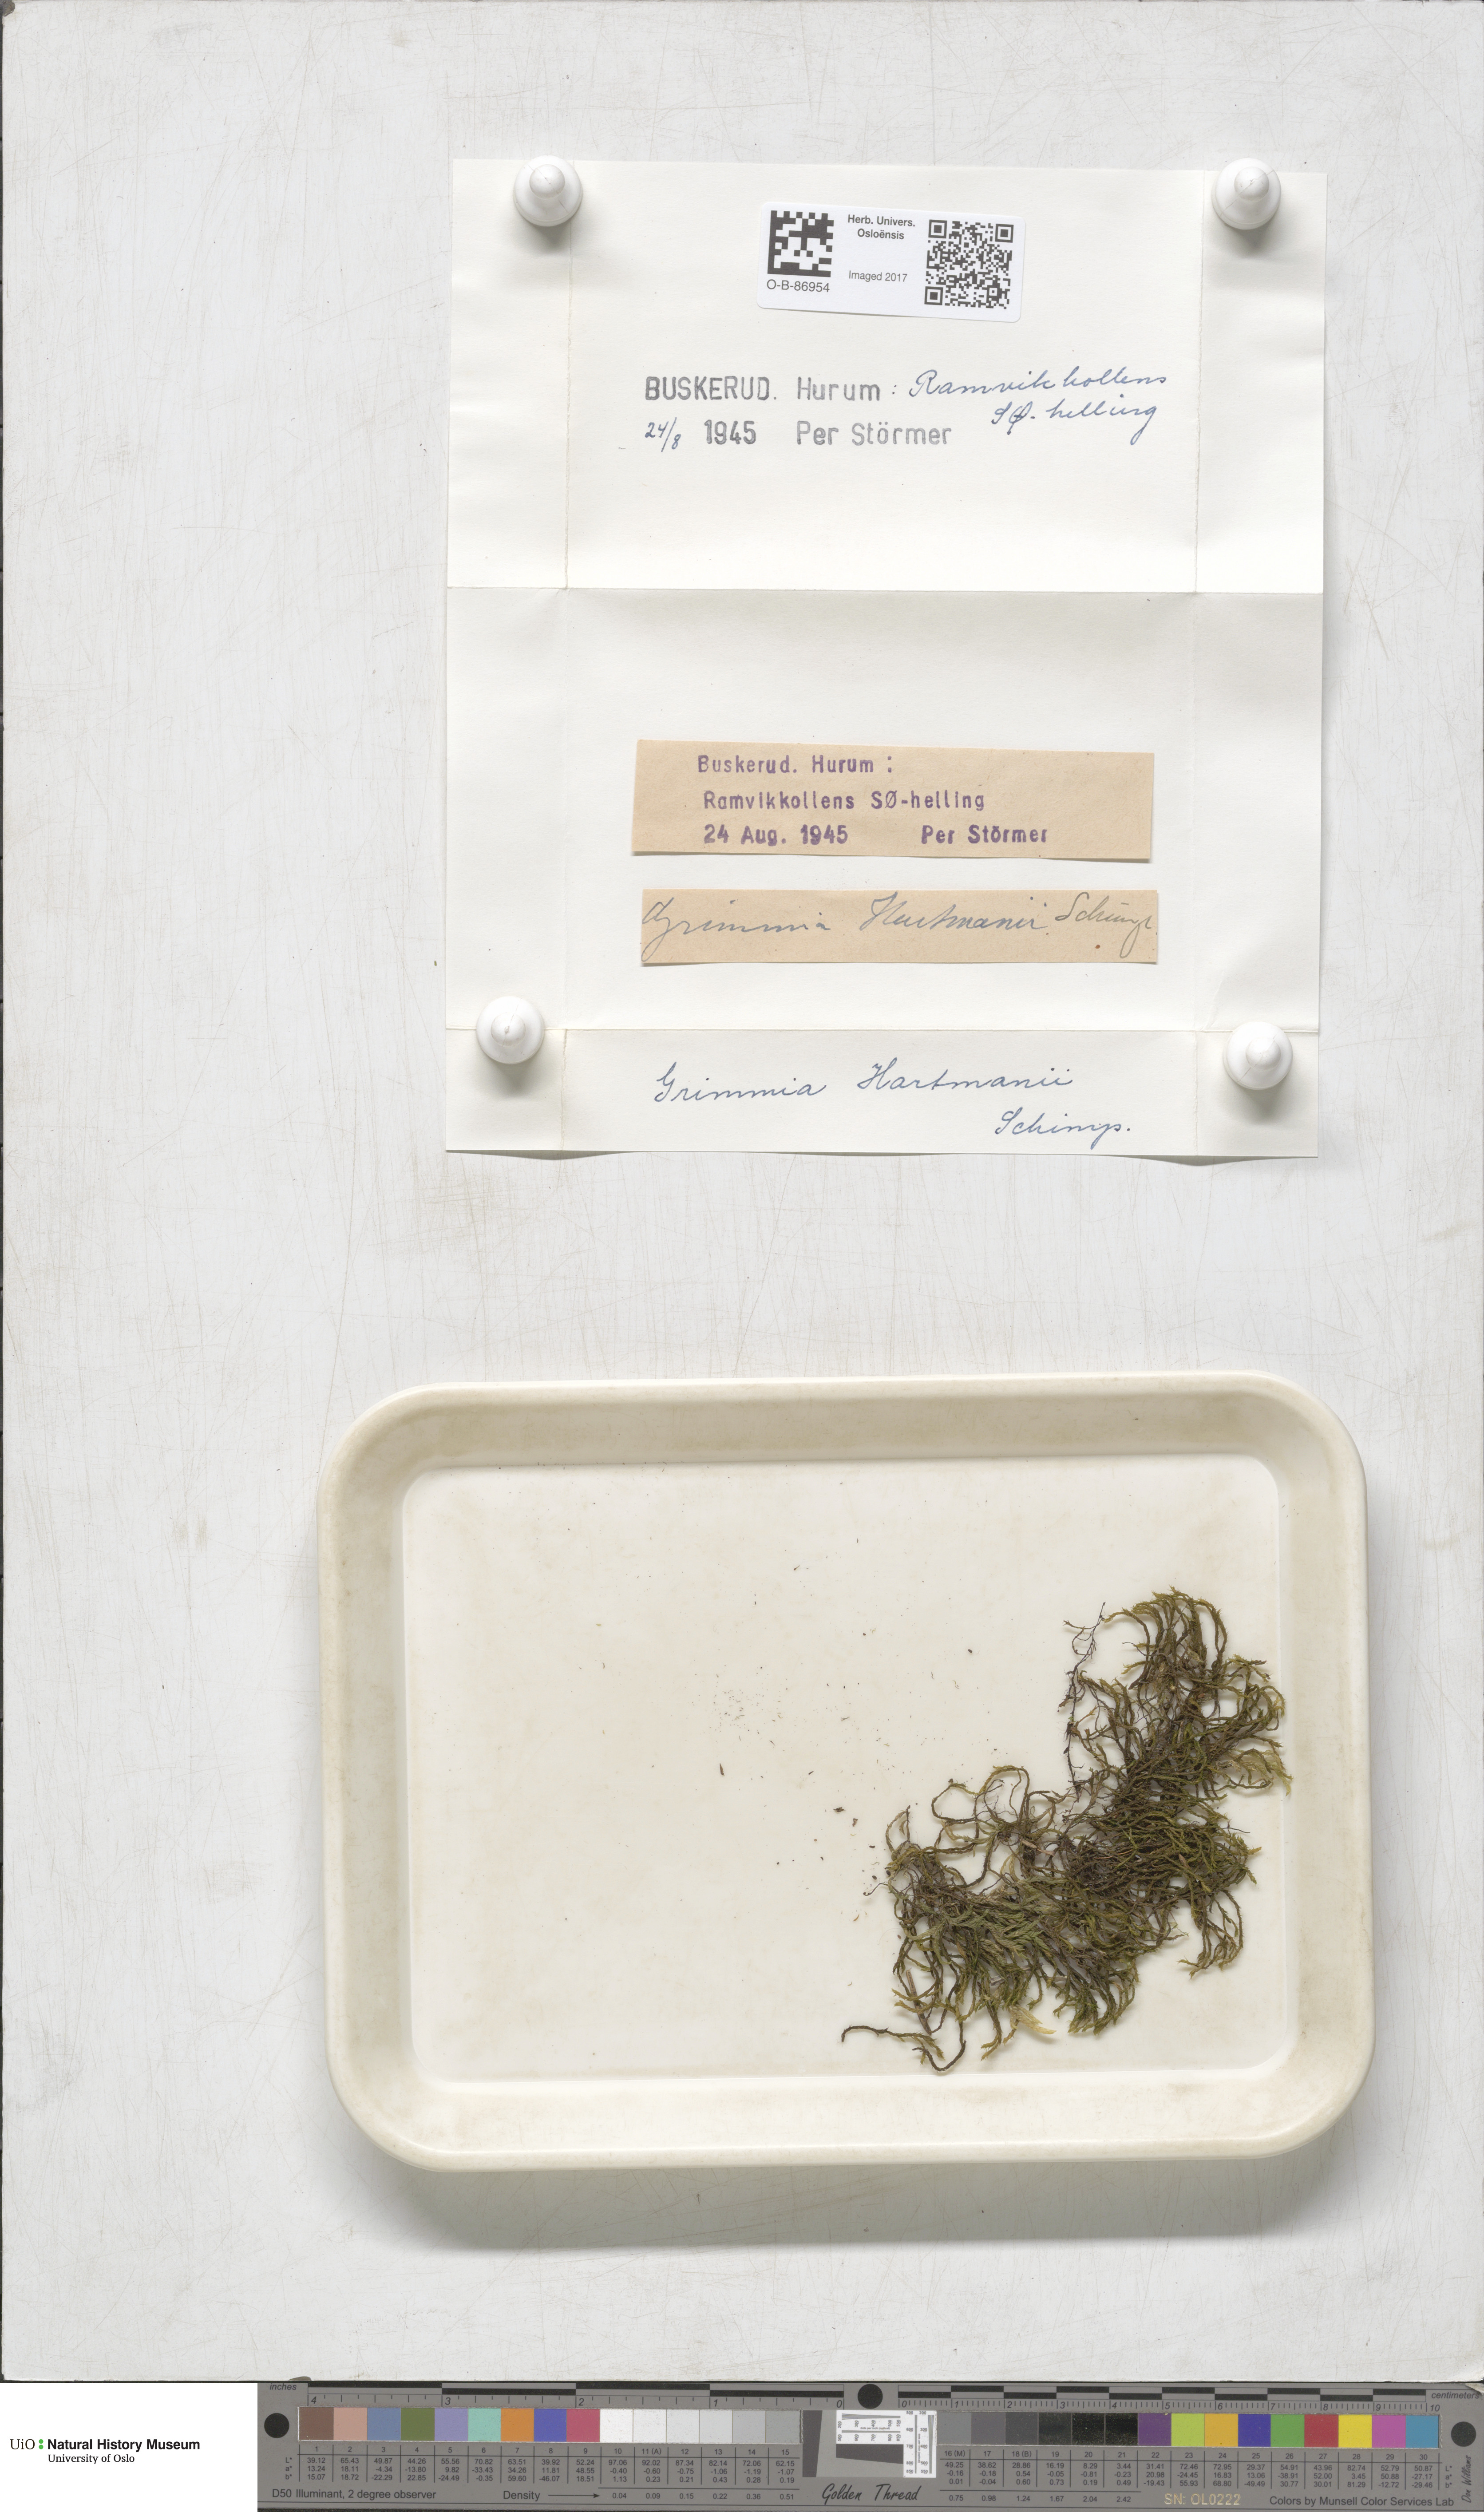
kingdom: Plantae
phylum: Bryophyta
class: Bryopsida
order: Grimmiales
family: Grimmiaceae
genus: Grimmia
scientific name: Grimmia hartmanii
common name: Hartman's grimmia
